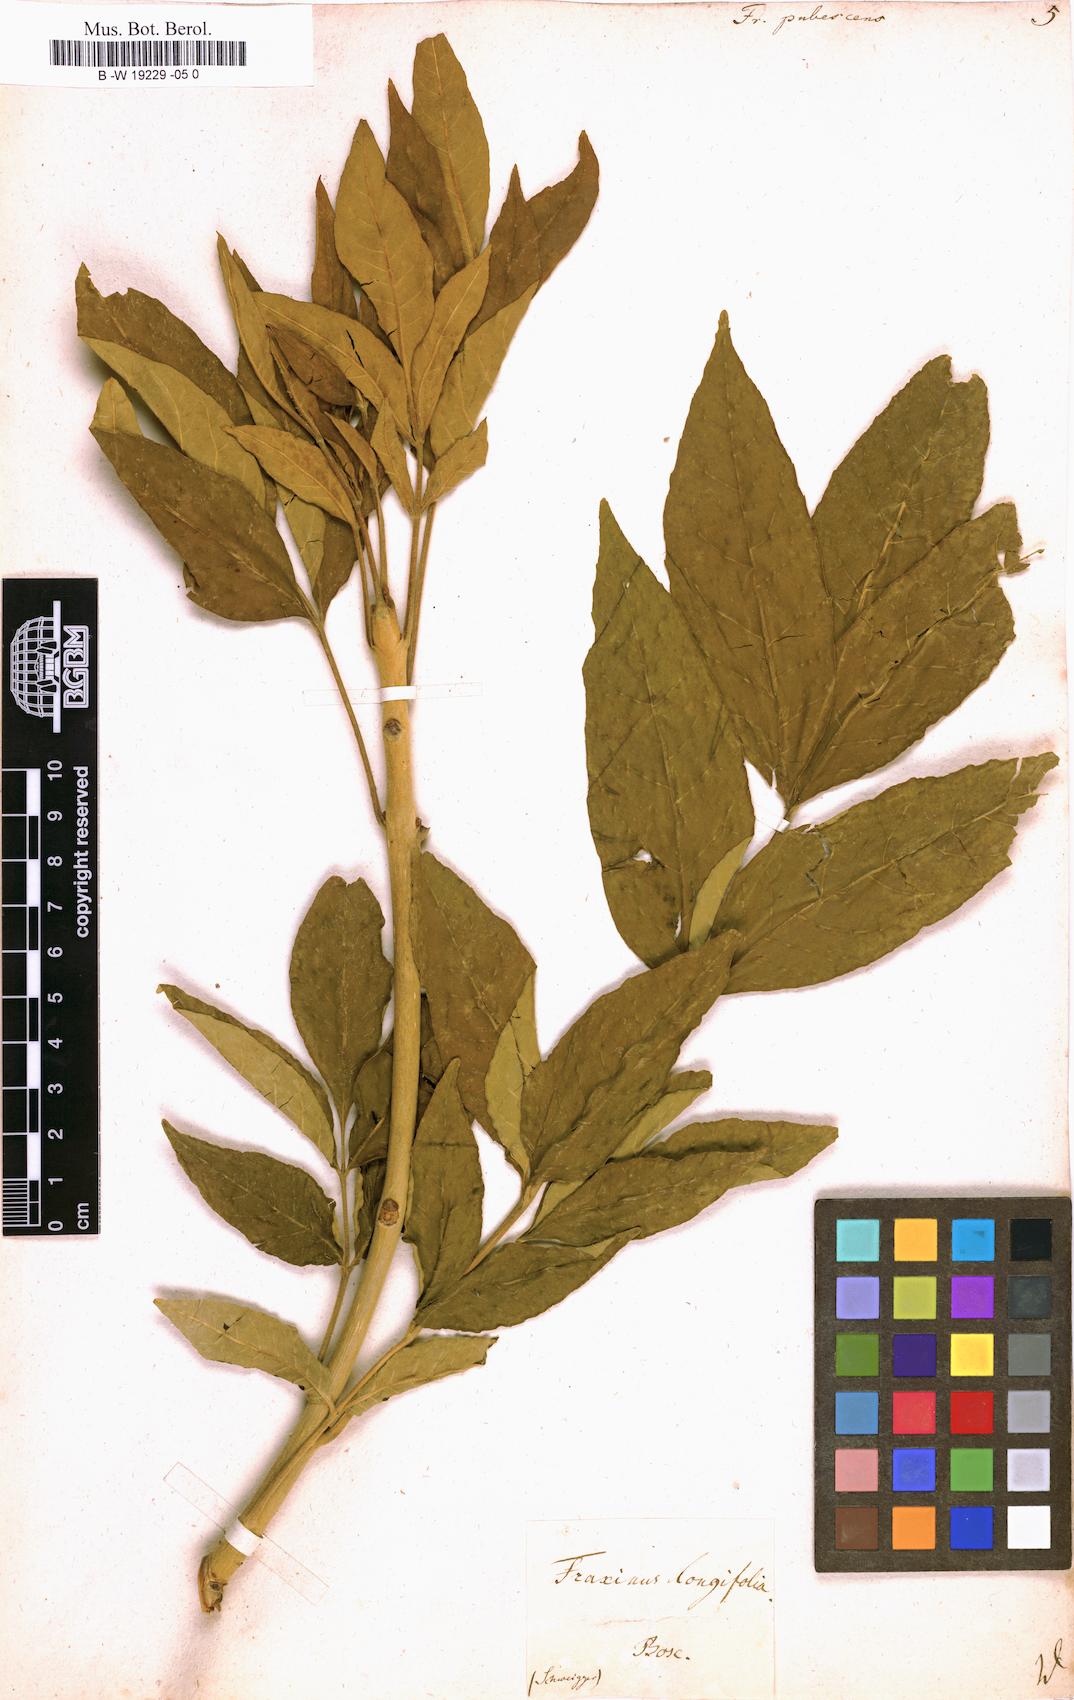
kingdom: Plantae
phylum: Tracheophyta
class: Magnoliopsida
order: Lamiales
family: Oleaceae
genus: Fraxinus
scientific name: Fraxinus pennsylvanica
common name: Green ash
